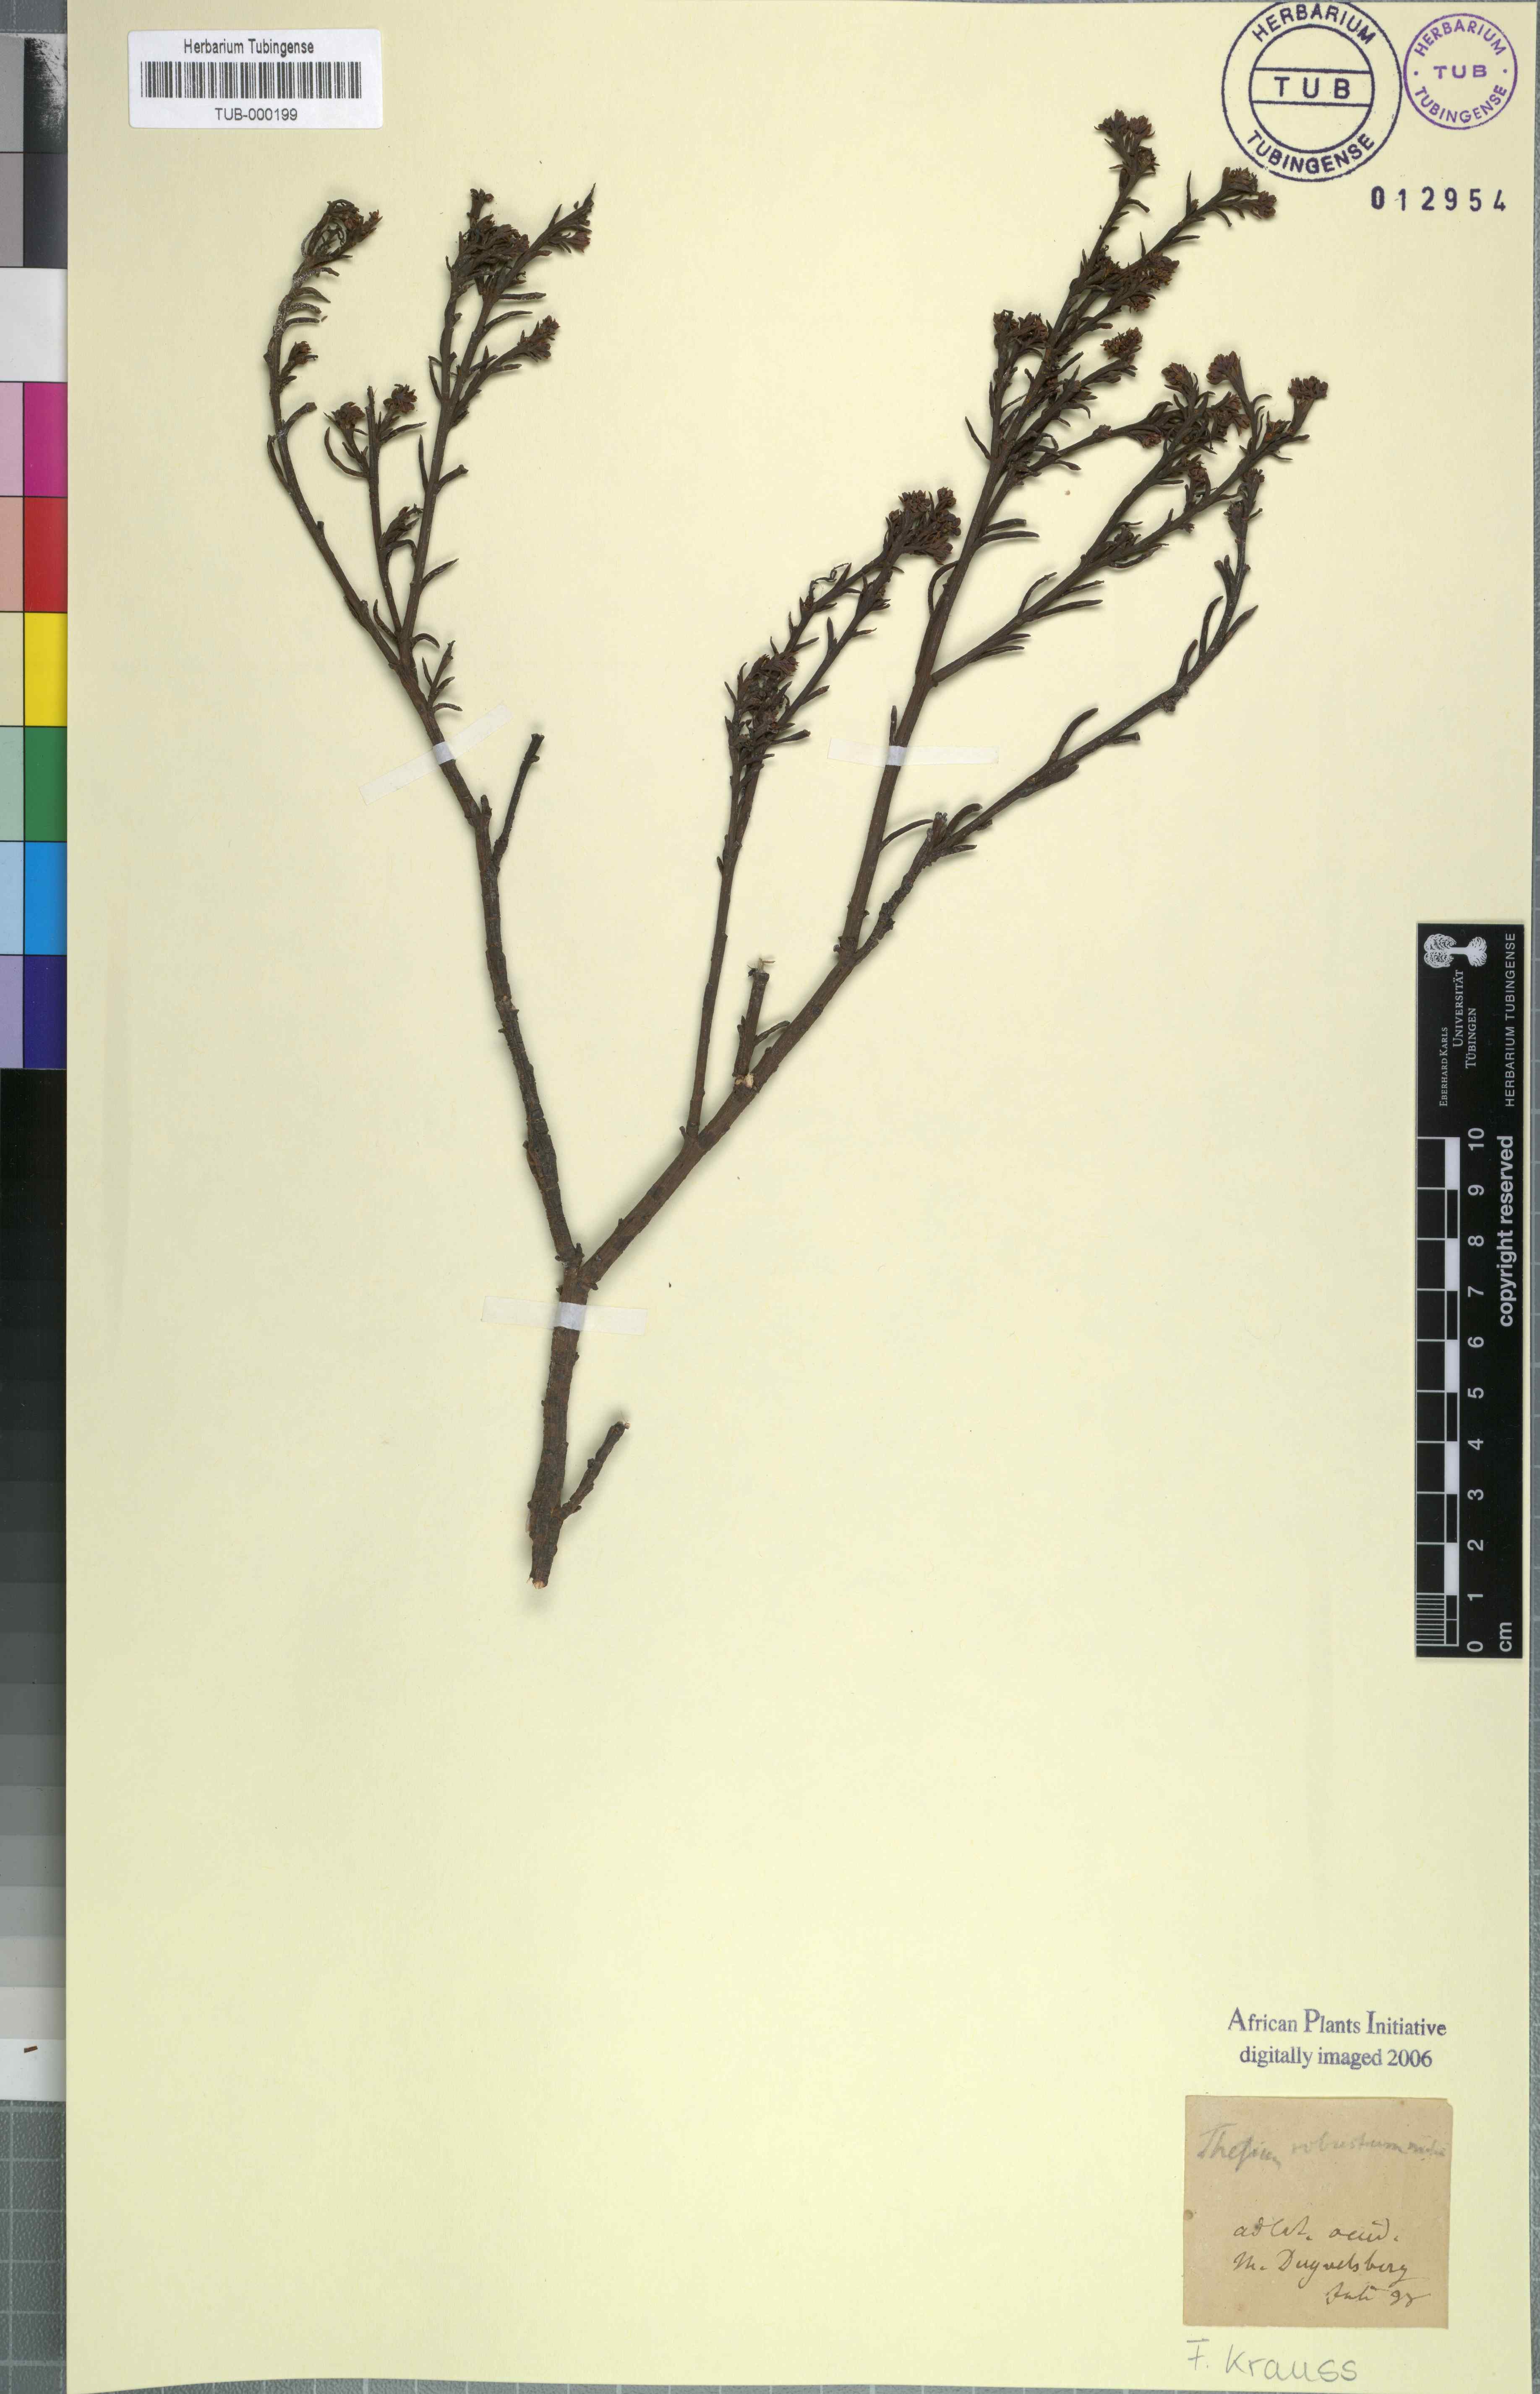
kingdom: Plantae
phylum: Tracheophyta
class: Magnoliopsida
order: Santalales
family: Thesiaceae
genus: Thesium
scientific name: Thesium strictum
